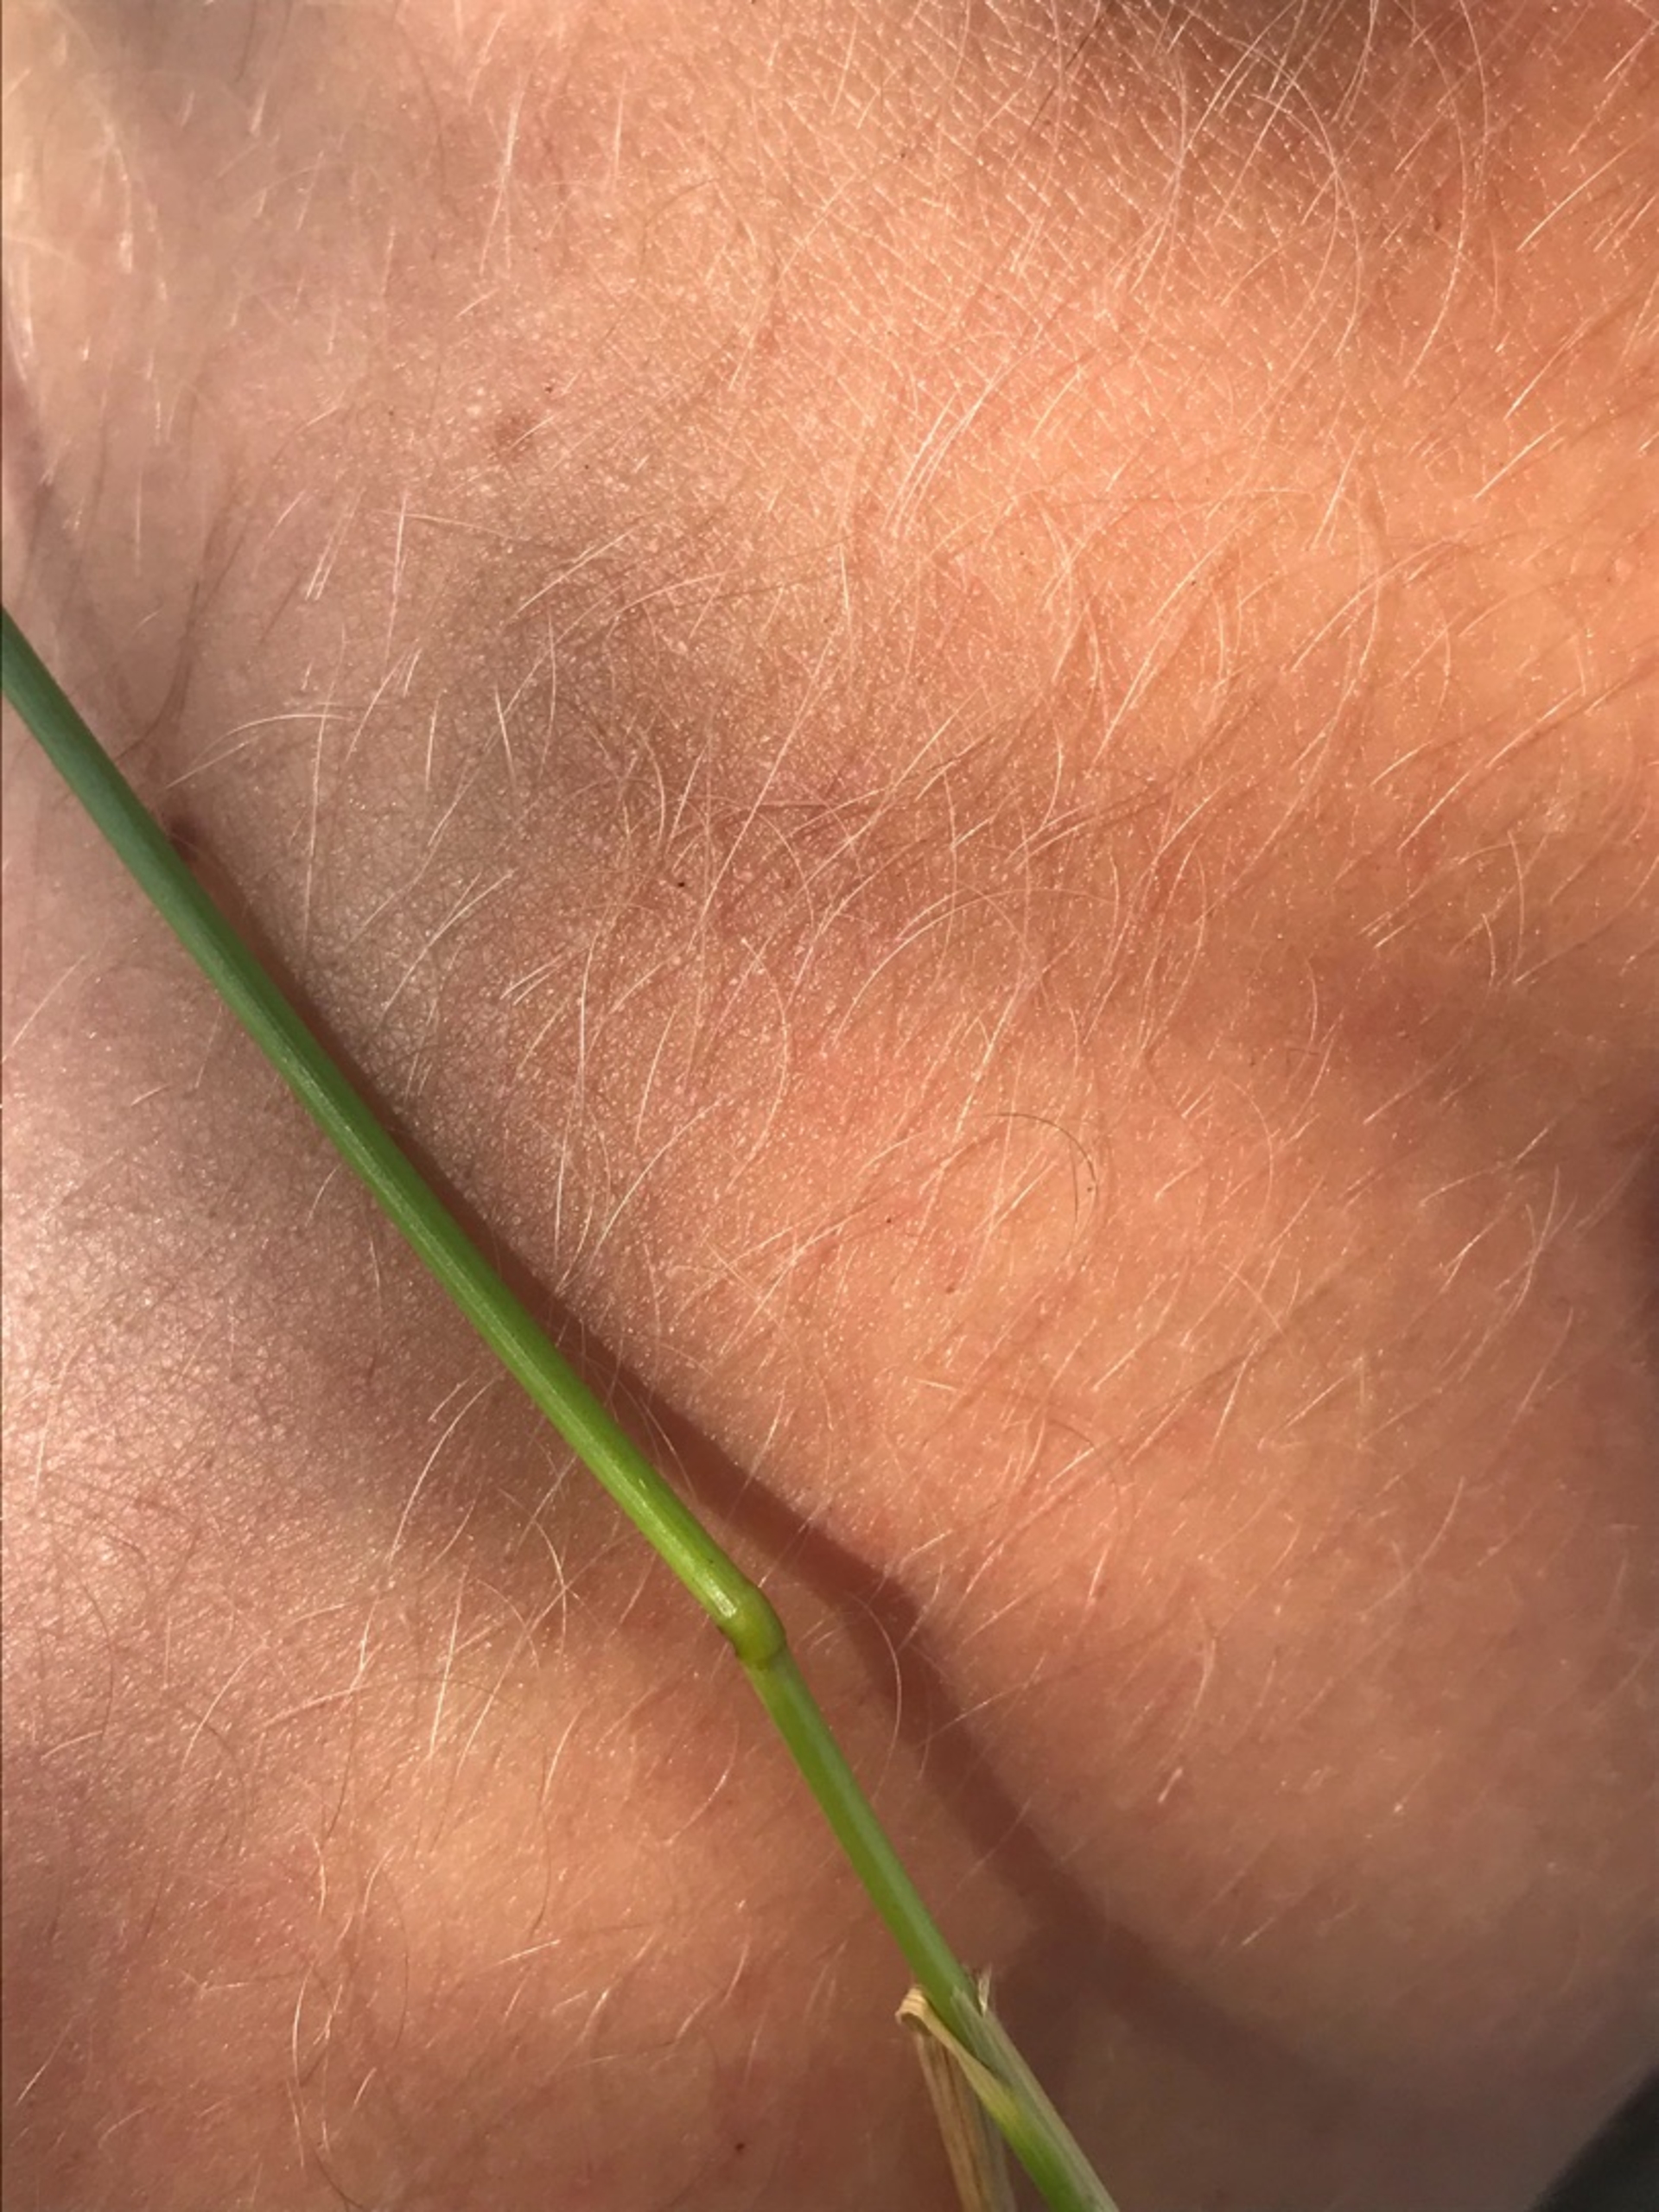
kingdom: Plantae
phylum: Tracheophyta
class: Liliopsida
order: Poales
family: Poaceae
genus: Elymus
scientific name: Elymus repens
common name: Almindelig kvik
